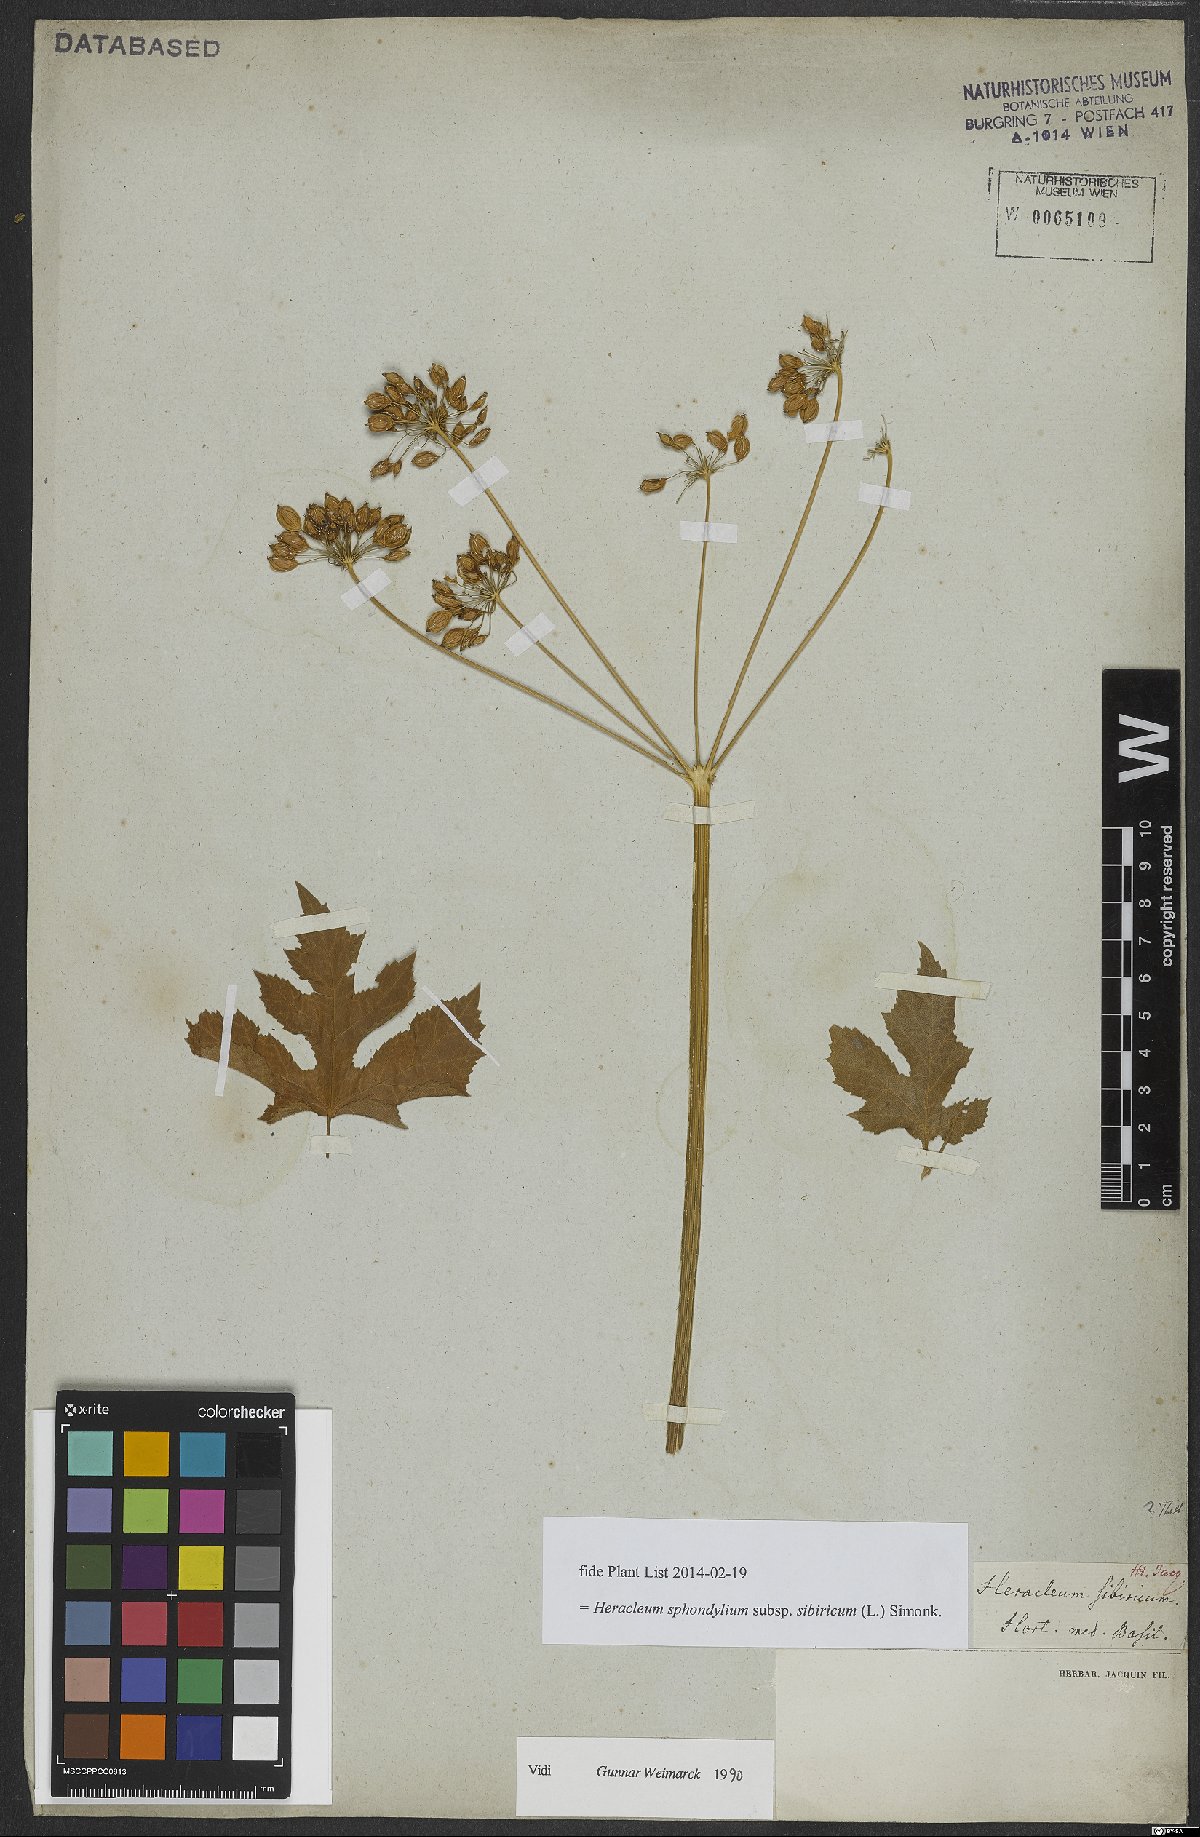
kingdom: Plantae
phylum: Tracheophyta
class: Magnoliopsida
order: Apiales
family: Apiaceae
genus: Heracleum
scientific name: Heracleum sphondylium
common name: Hogweed
